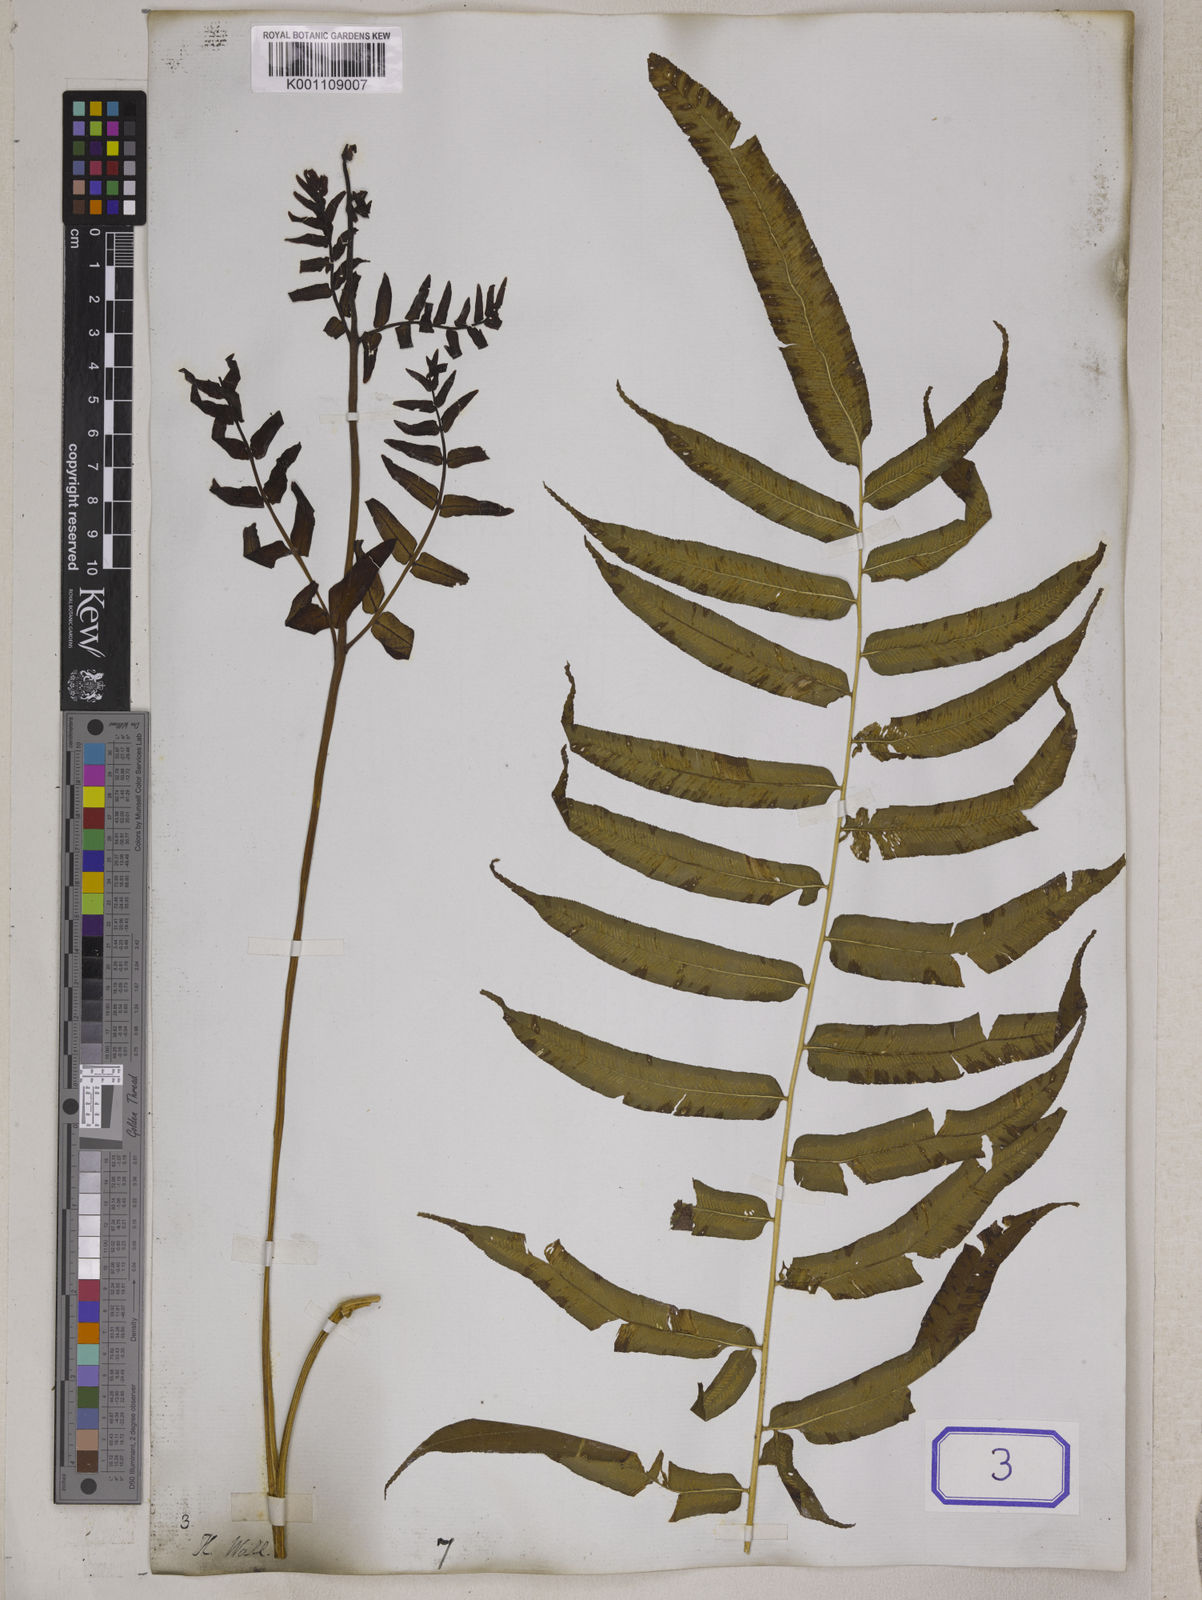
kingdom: Plantae
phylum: Tracheophyta
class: Polypodiopsida
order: Polypodiales
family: Pteridaceae
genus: Coniogramme
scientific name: Coniogramme procera
